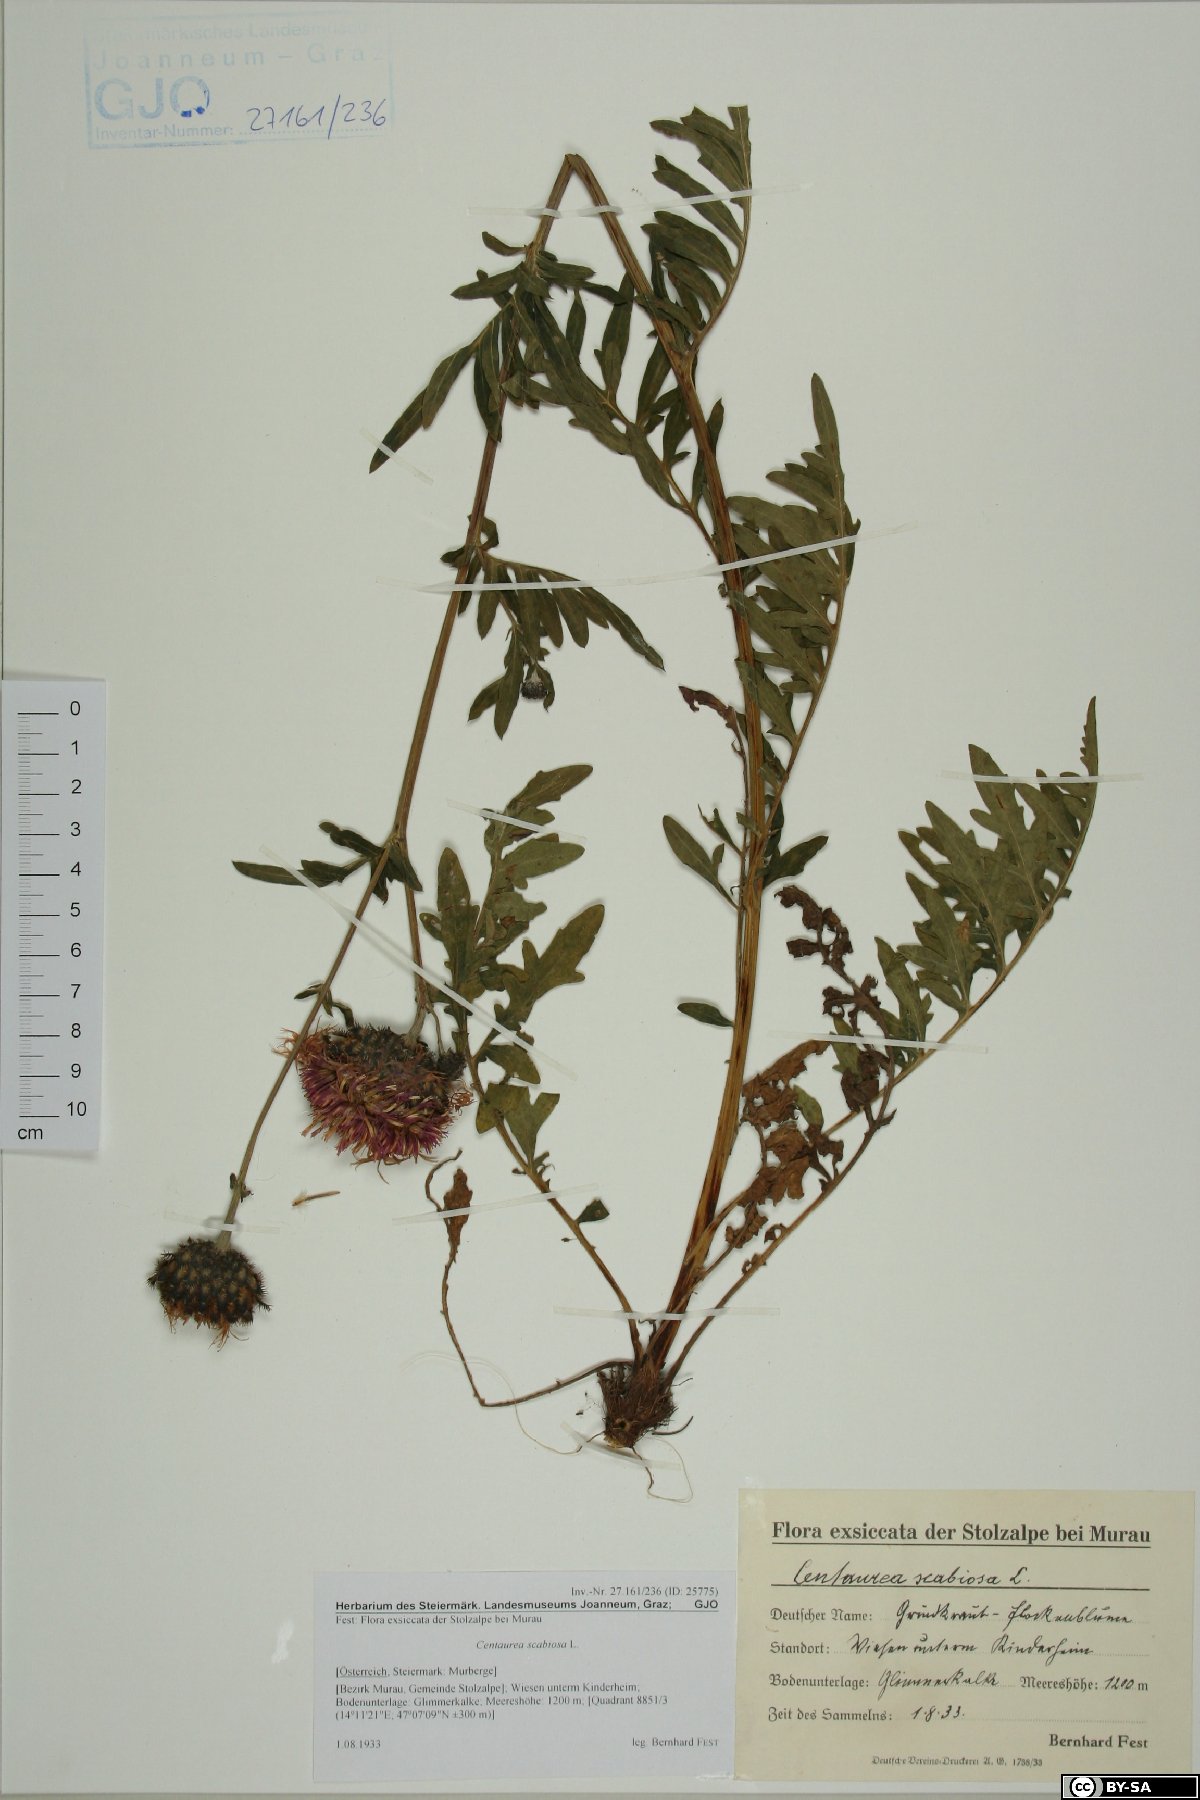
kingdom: Plantae
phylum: Tracheophyta
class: Magnoliopsida
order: Asterales
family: Asteraceae
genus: Centaurea
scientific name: Centaurea scabiosa
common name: Greater knapweed
